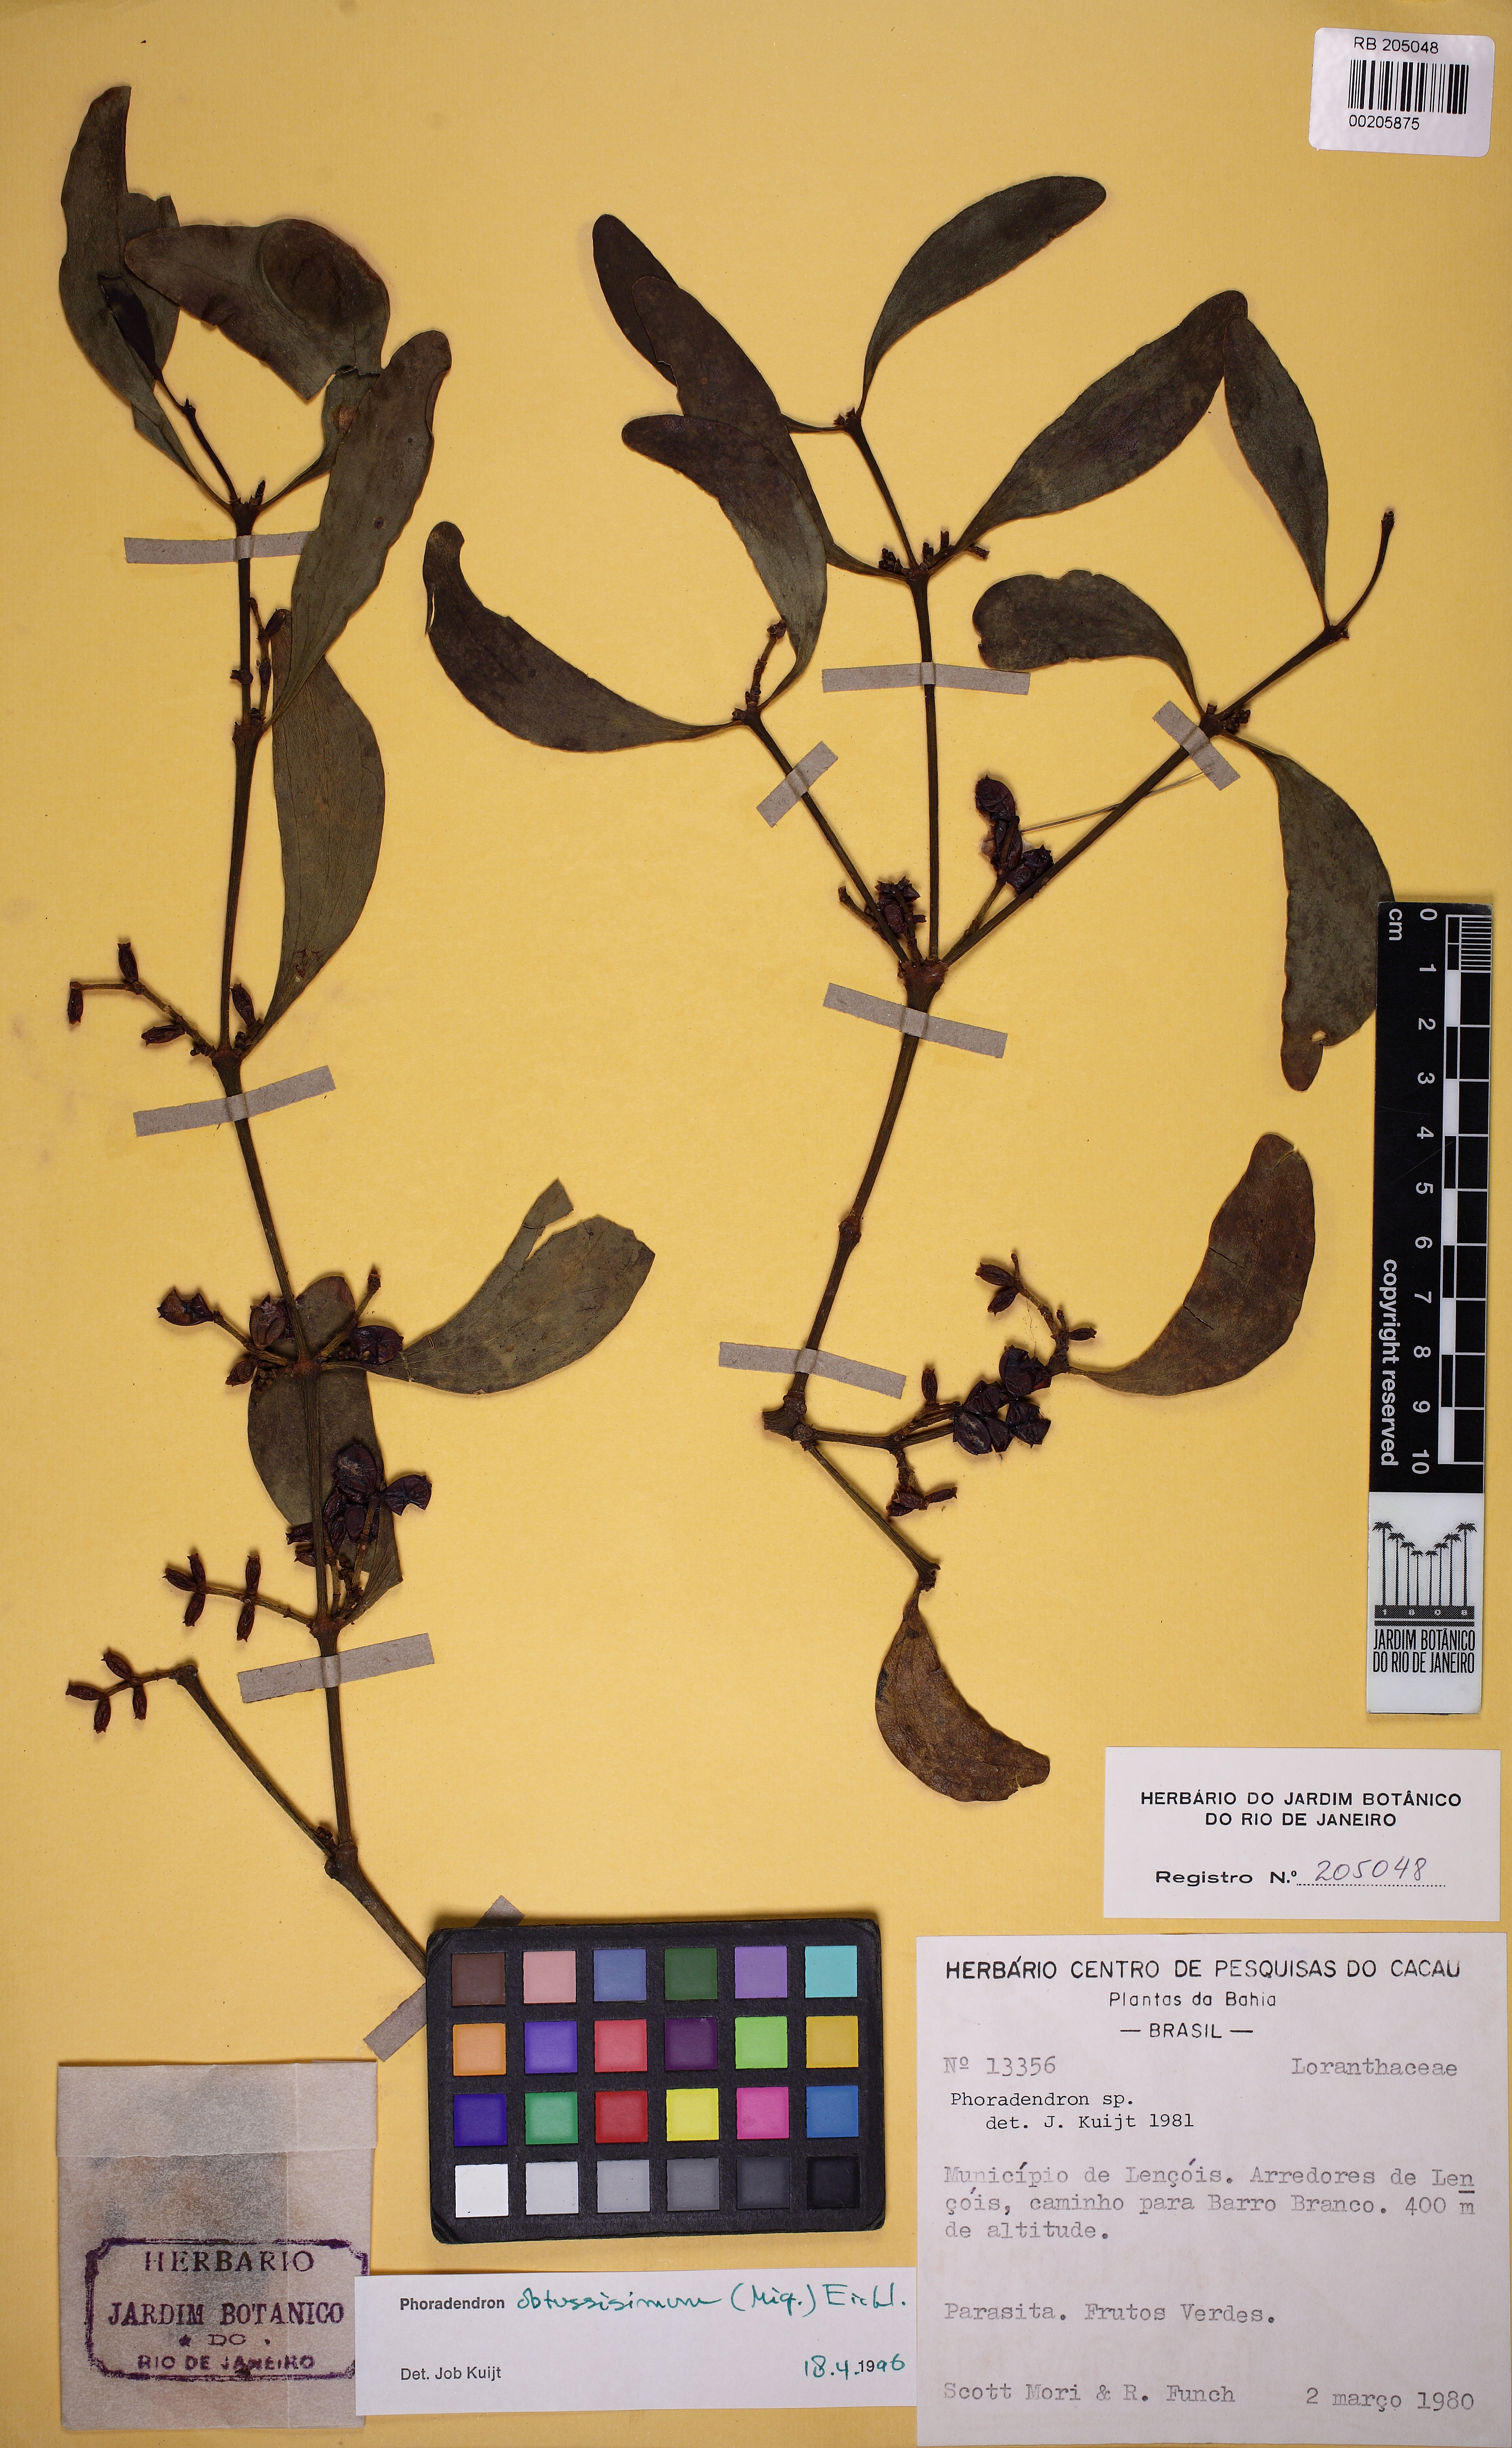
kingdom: Plantae
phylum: Tracheophyta
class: Magnoliopsida
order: Santalales
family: Viscaceae
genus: Phoradendron
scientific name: Phoradendron obtusissimum
